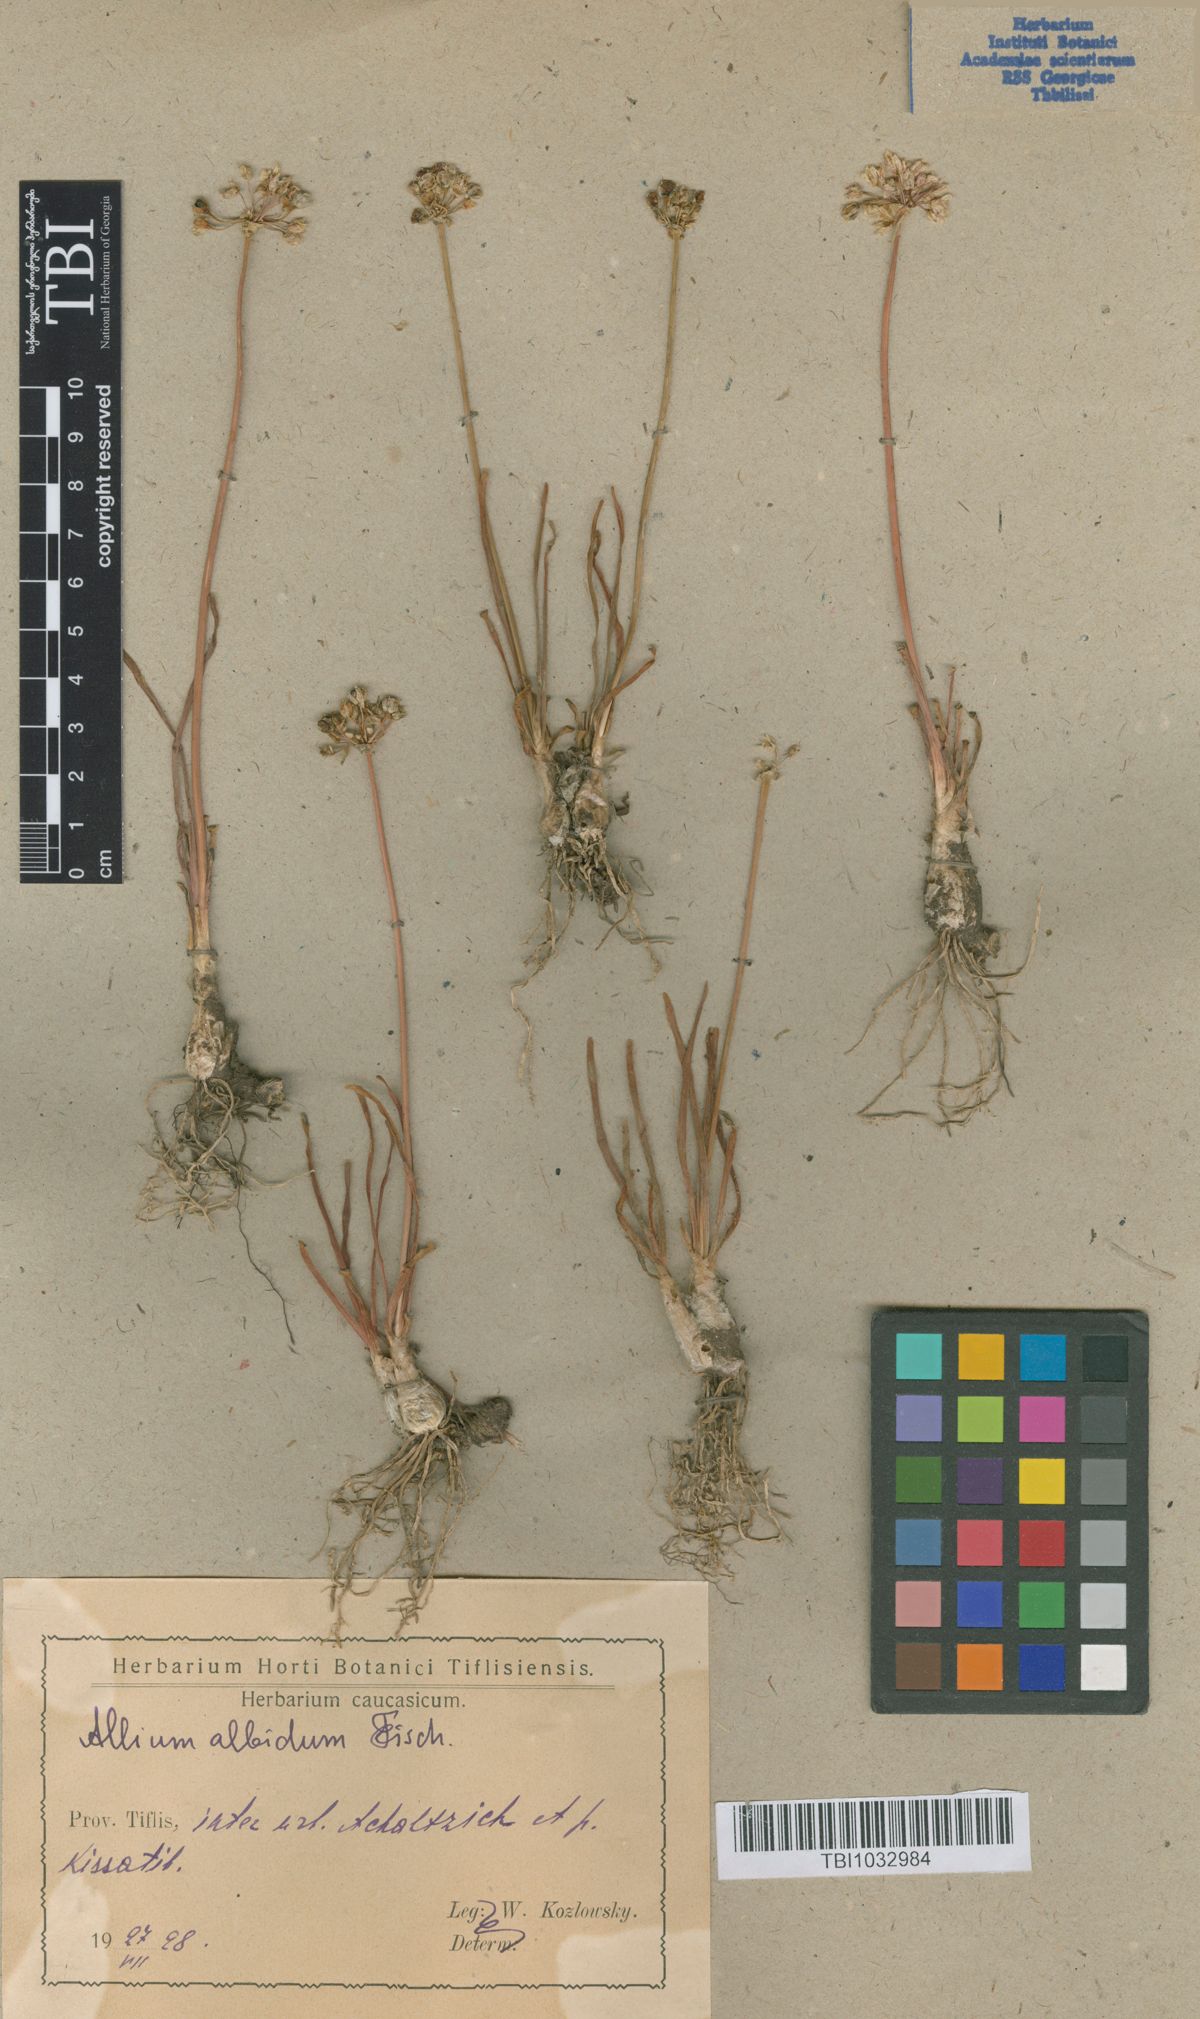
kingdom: Plantae
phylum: Tracheophyta
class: Liliopsida
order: Asparagales
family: Amaryllidaceae
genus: Allium
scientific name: Allium denudatum
